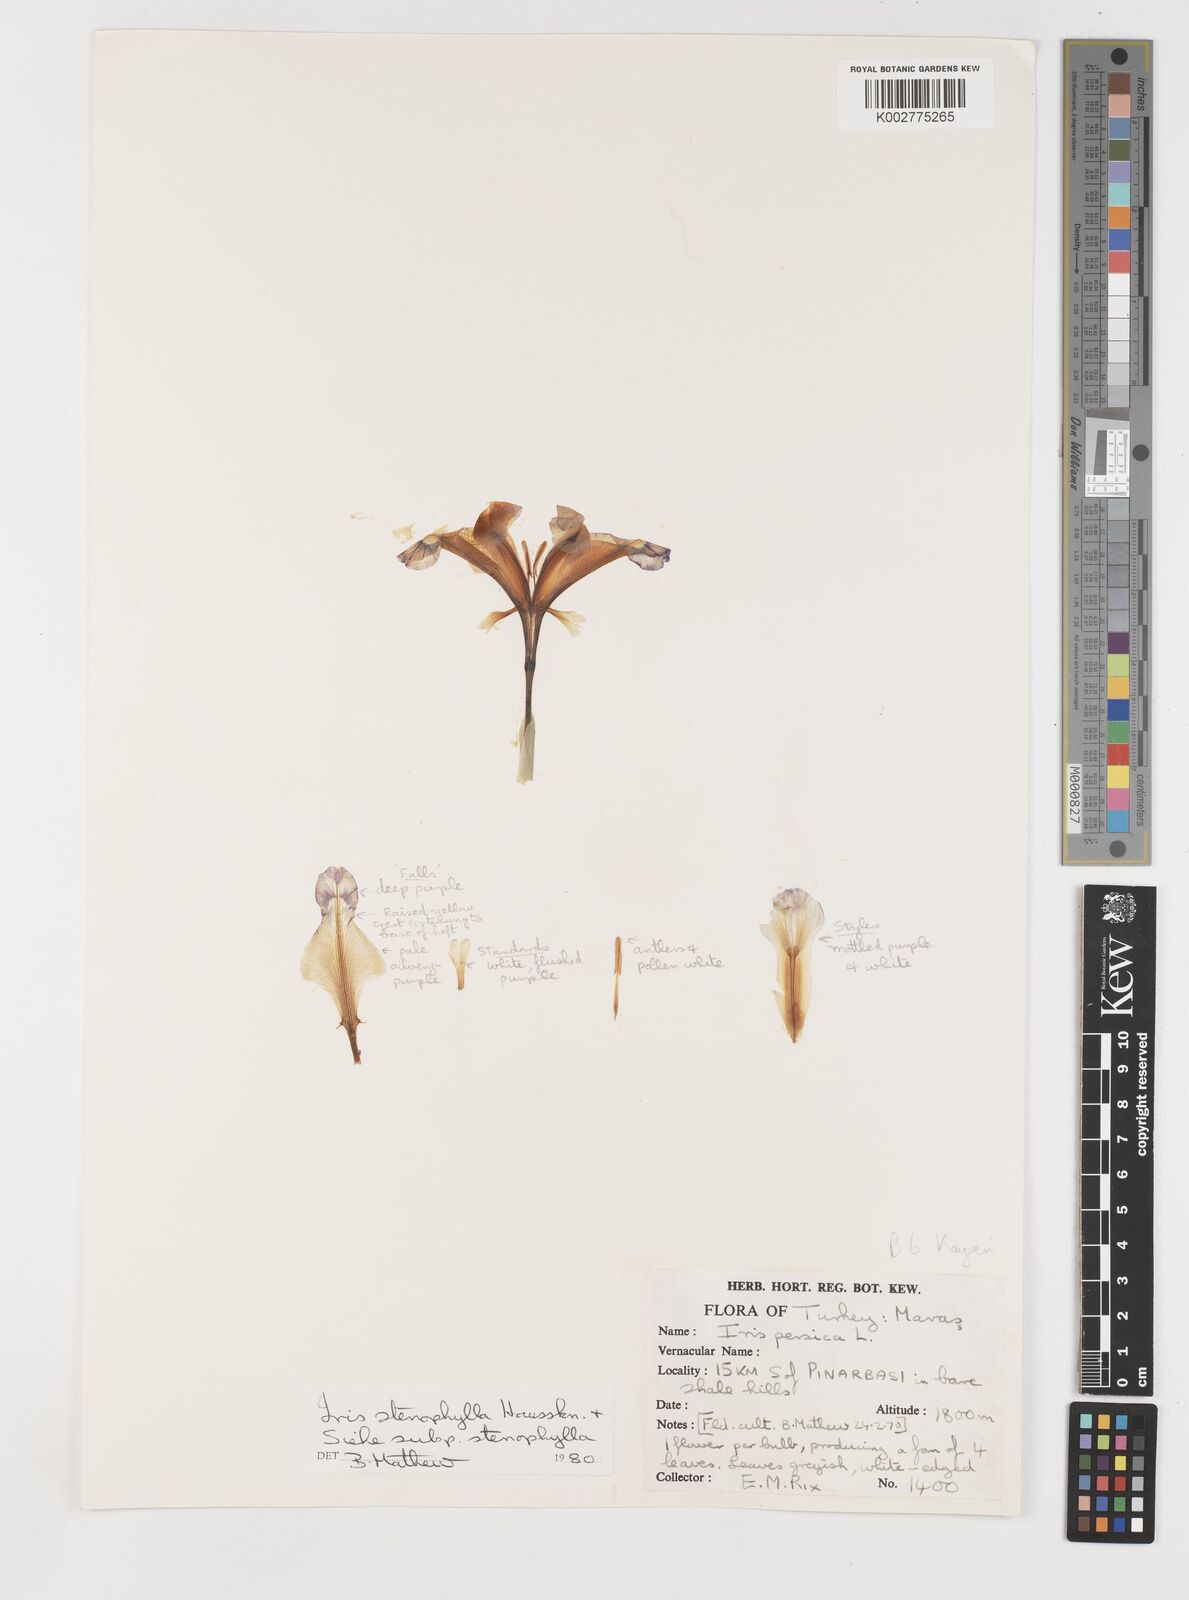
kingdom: Plantae
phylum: Tracheophyta
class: Liliopsida
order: Asparagales
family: Iridaceae
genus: Iris
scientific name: Iris stenophylla
